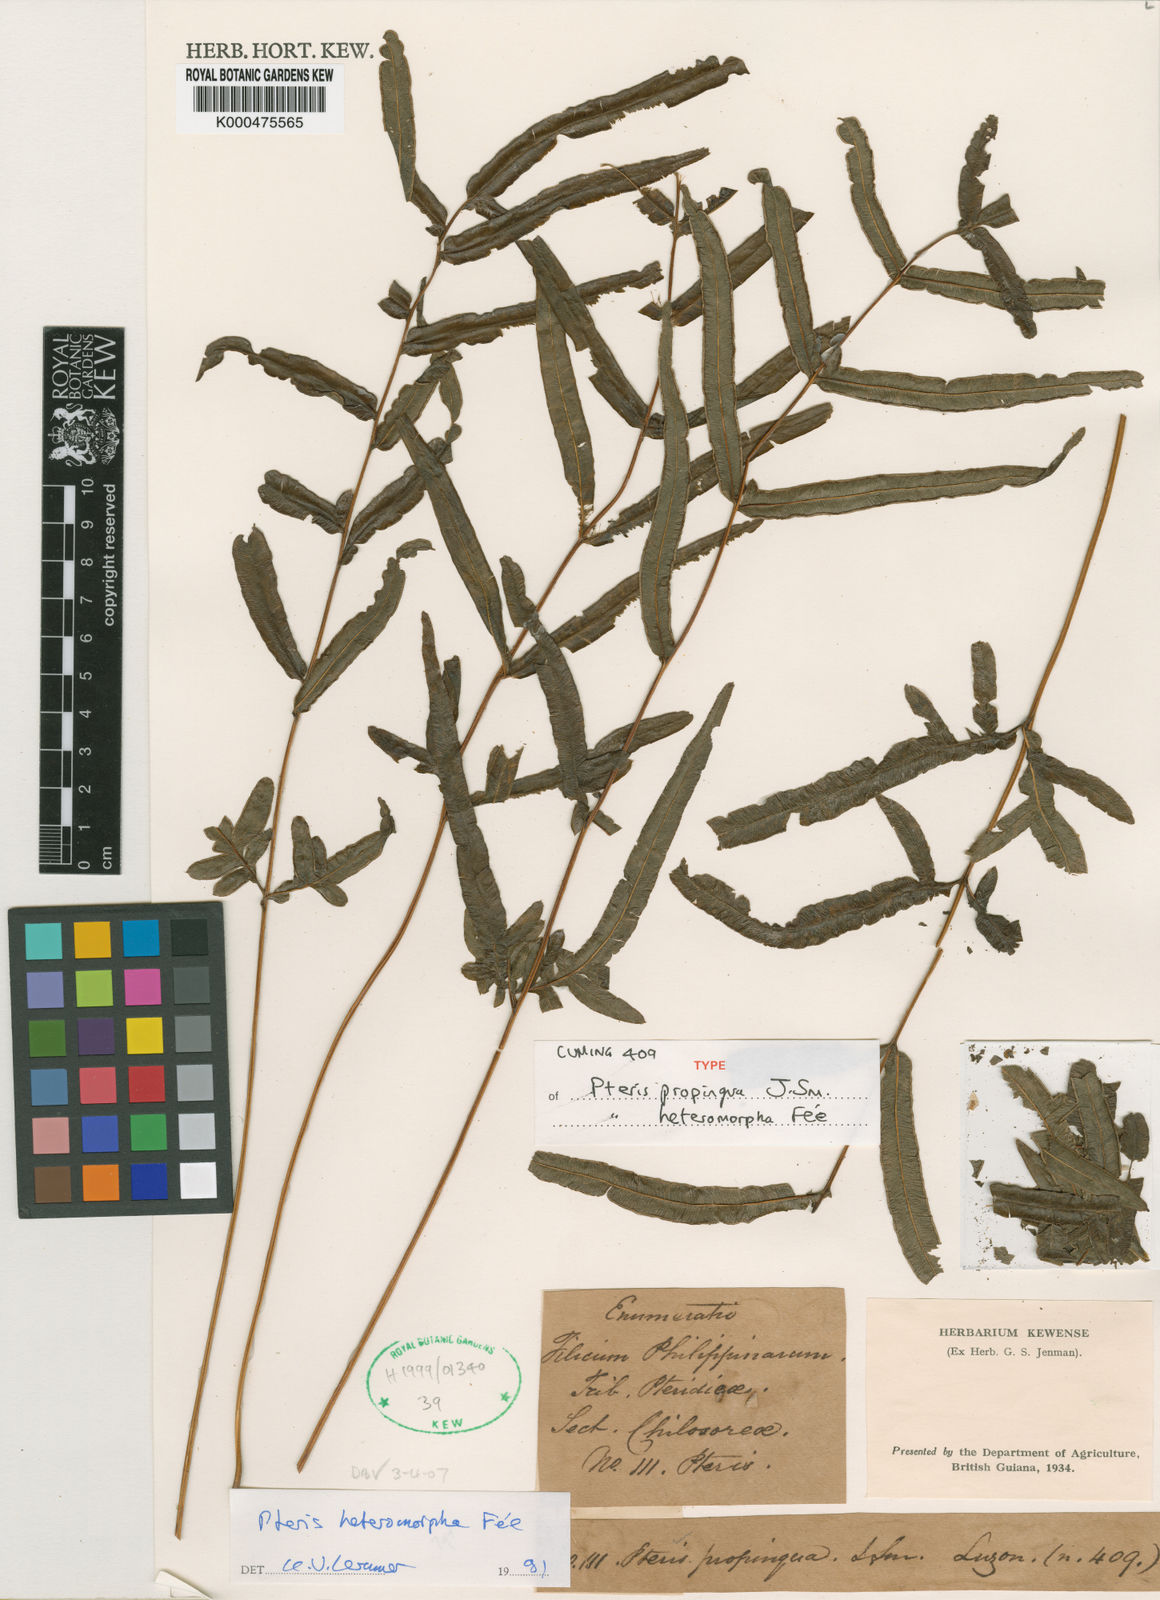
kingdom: Plantae
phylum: Tracheophyta
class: Polypodiopsida
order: Polypodiales
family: Pteridaceae
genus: Pteris
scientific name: Pteris
